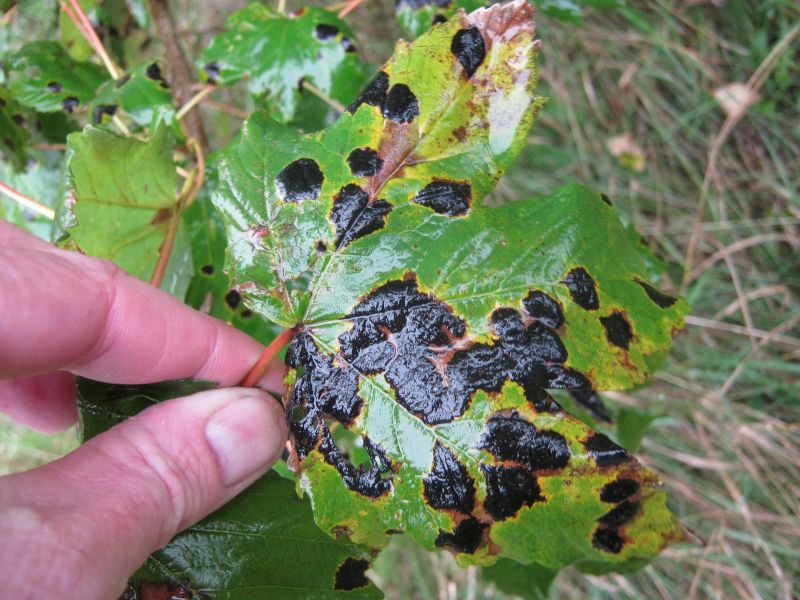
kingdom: Fungi
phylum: Ascomycota
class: Leotiomycetes
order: Rhytismatales
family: Rhytismataceae
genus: Rhytisma
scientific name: Rhytisma acerinum
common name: ahorn-rynkeplet
